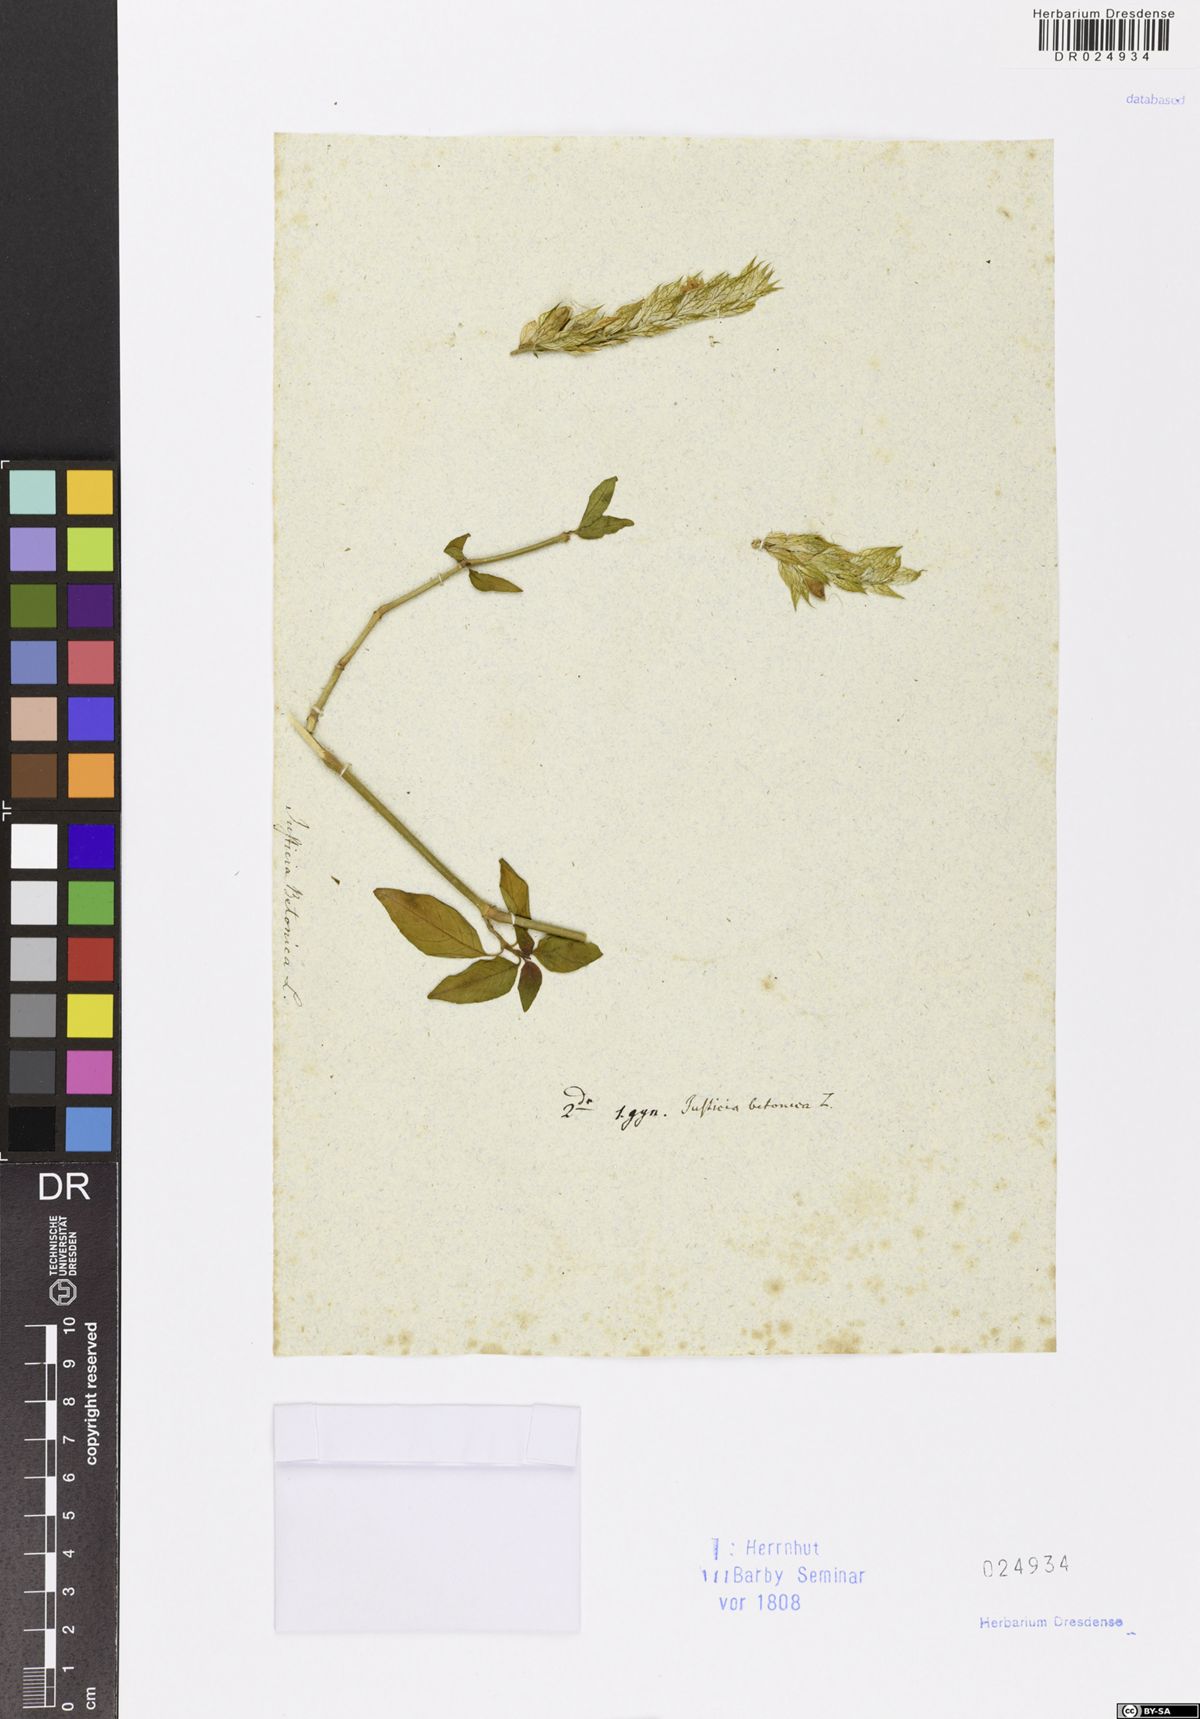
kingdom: Plantae
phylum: Tracheophyta
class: Magnoliopsida
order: Lamiales
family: Acanthaceae
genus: Nicoteba
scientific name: Nicoteba betonica
